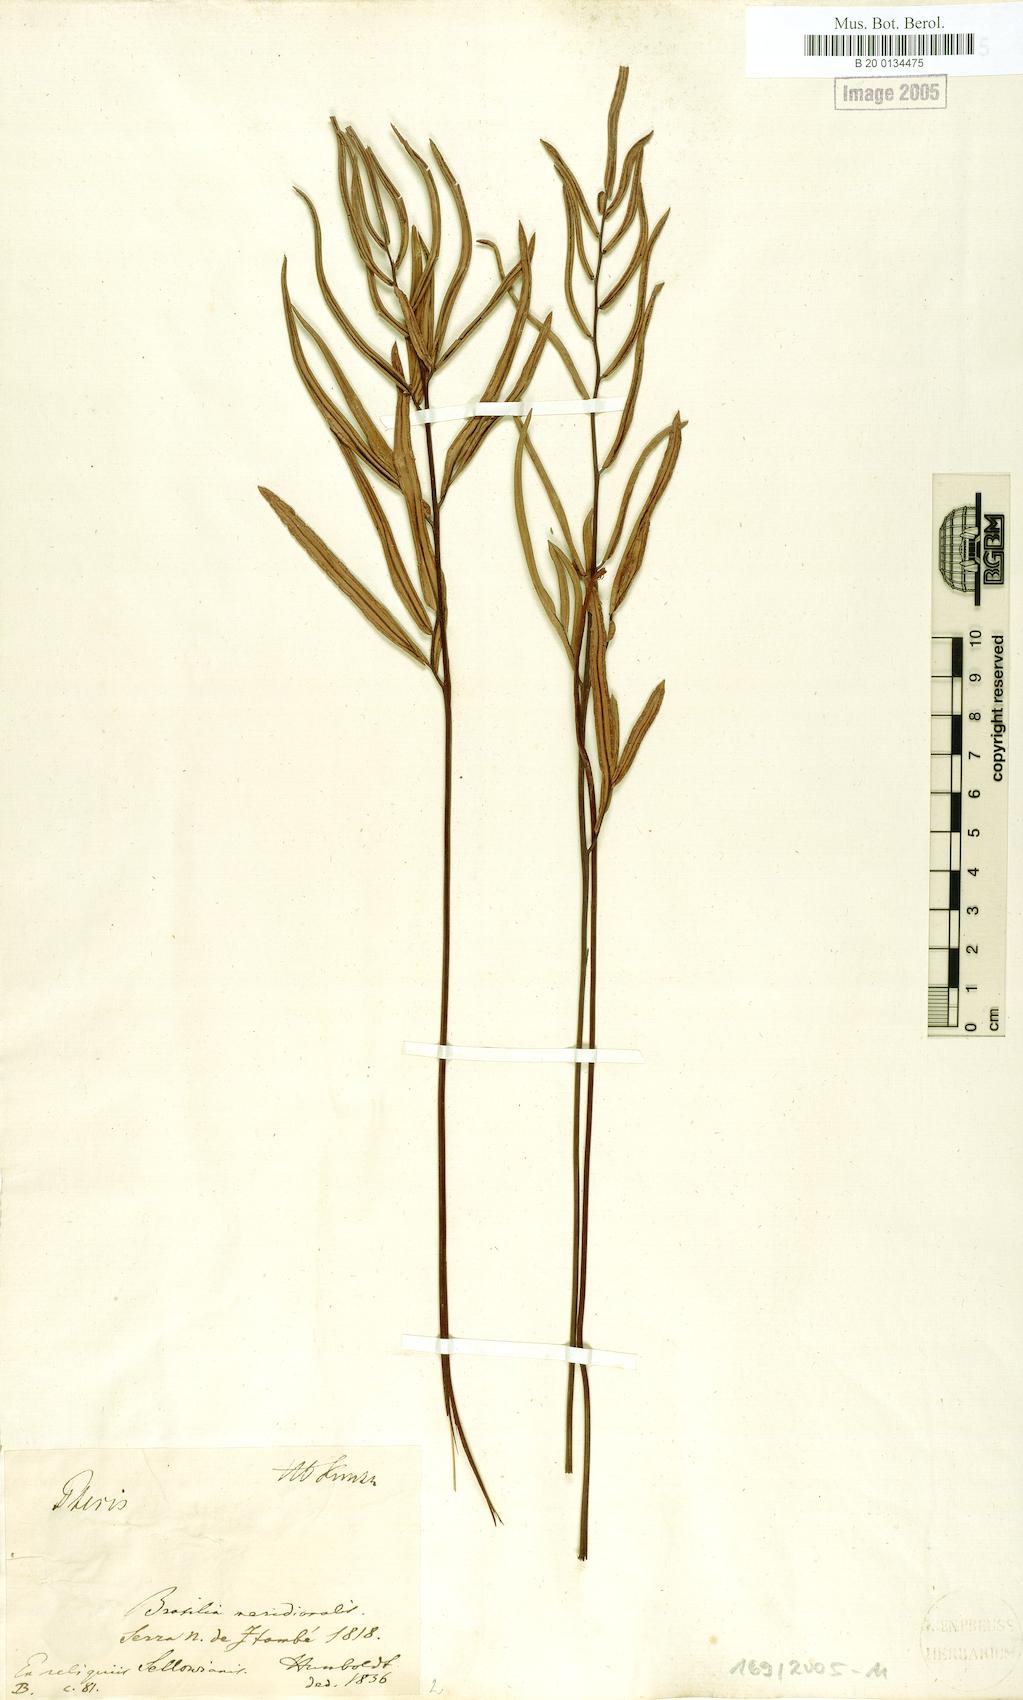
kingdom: Plantae
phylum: Tracheophyta
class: Polypodiopsida
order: Polypodiales
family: Pteridaceae
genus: Ormopteris
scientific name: Ormopteris pinnata
